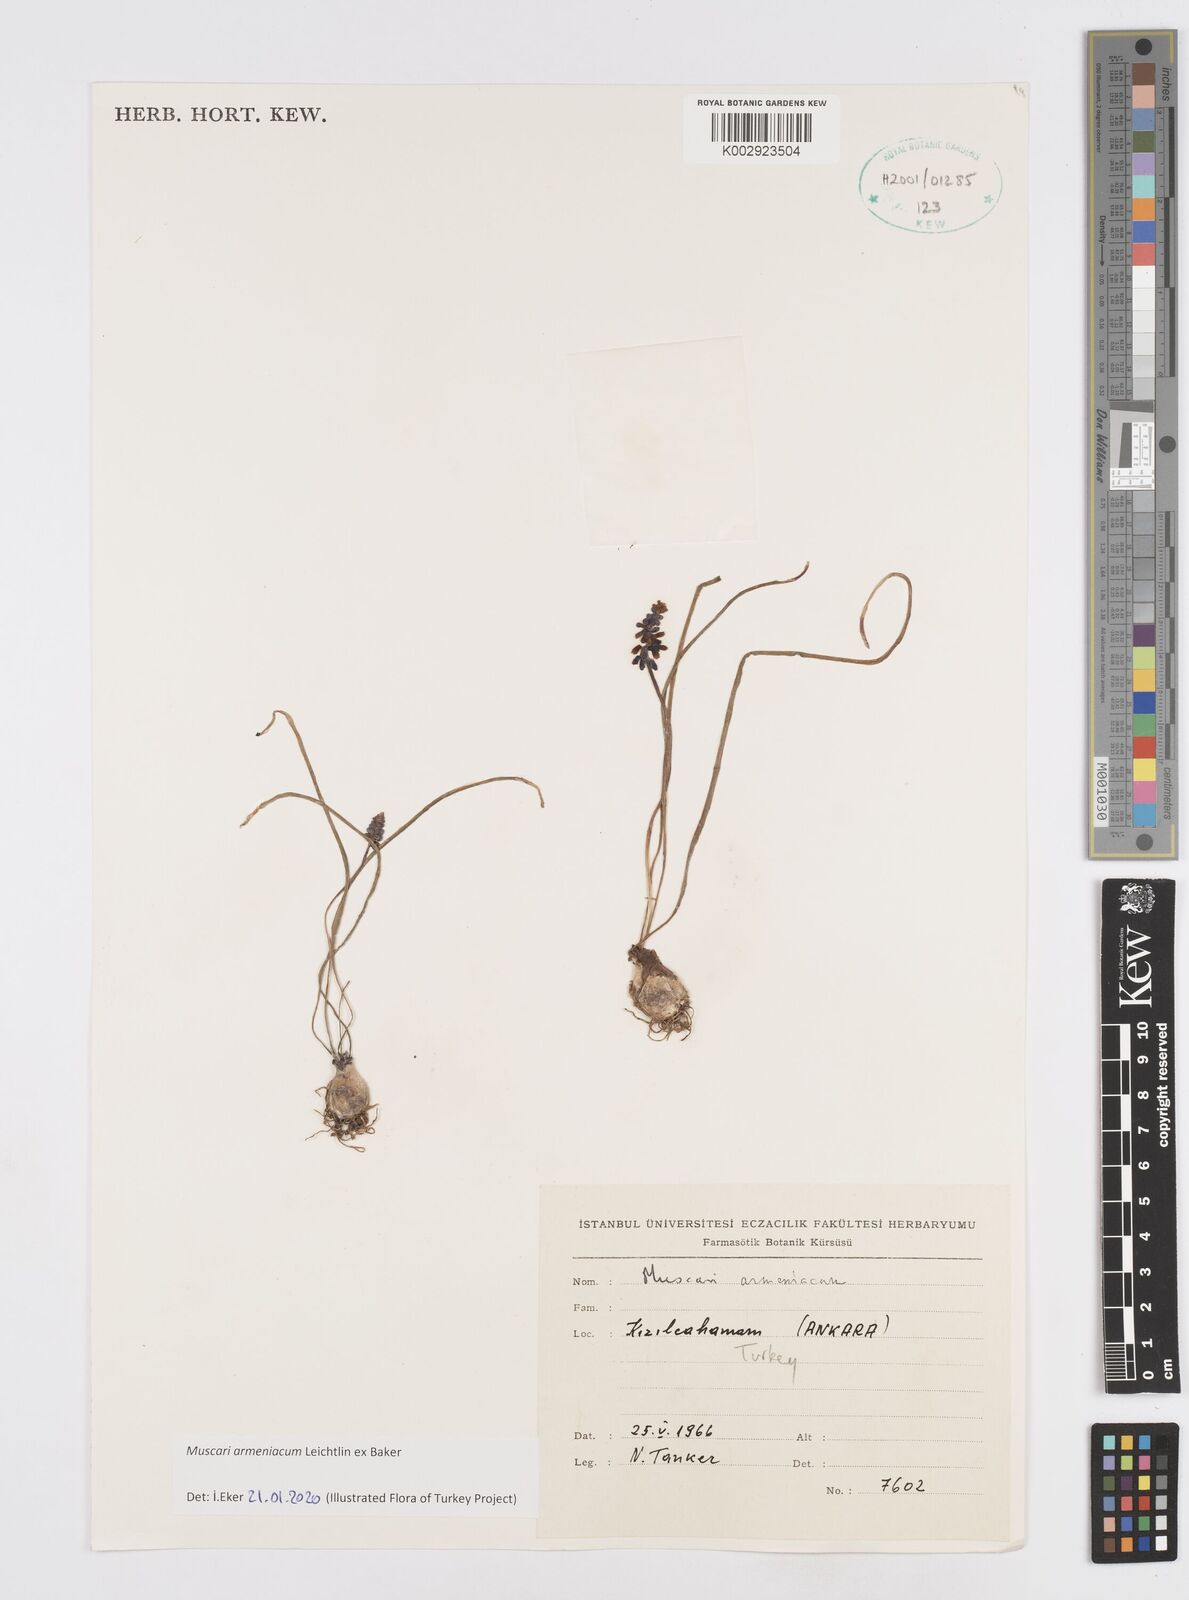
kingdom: Plantae
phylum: Tracheophyta
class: Liliopsida
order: Asparagales
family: Asparagaceae
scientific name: Asparagaceae
